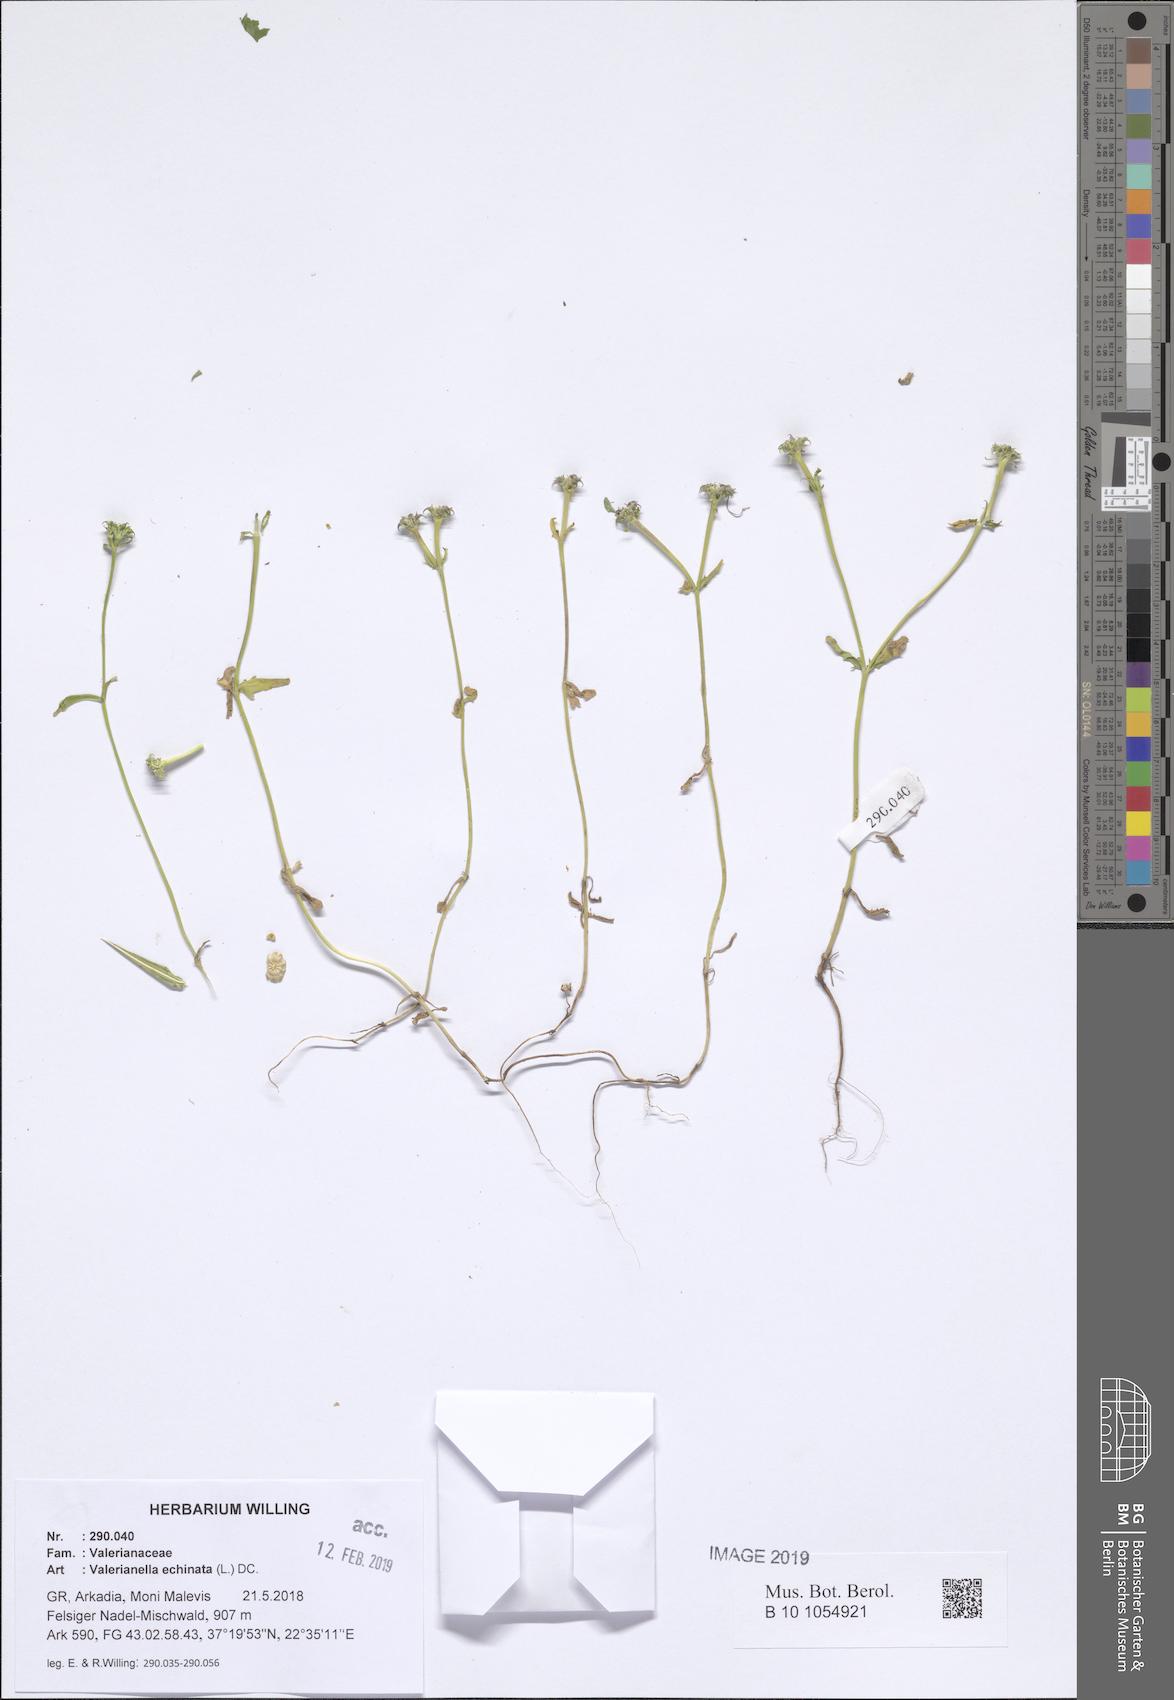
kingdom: Plantae
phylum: Tracheophyta
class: Magnoliopsida
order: Dipsacales
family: Caprifoliaceae
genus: Valerianella
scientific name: Valerianella echinata
